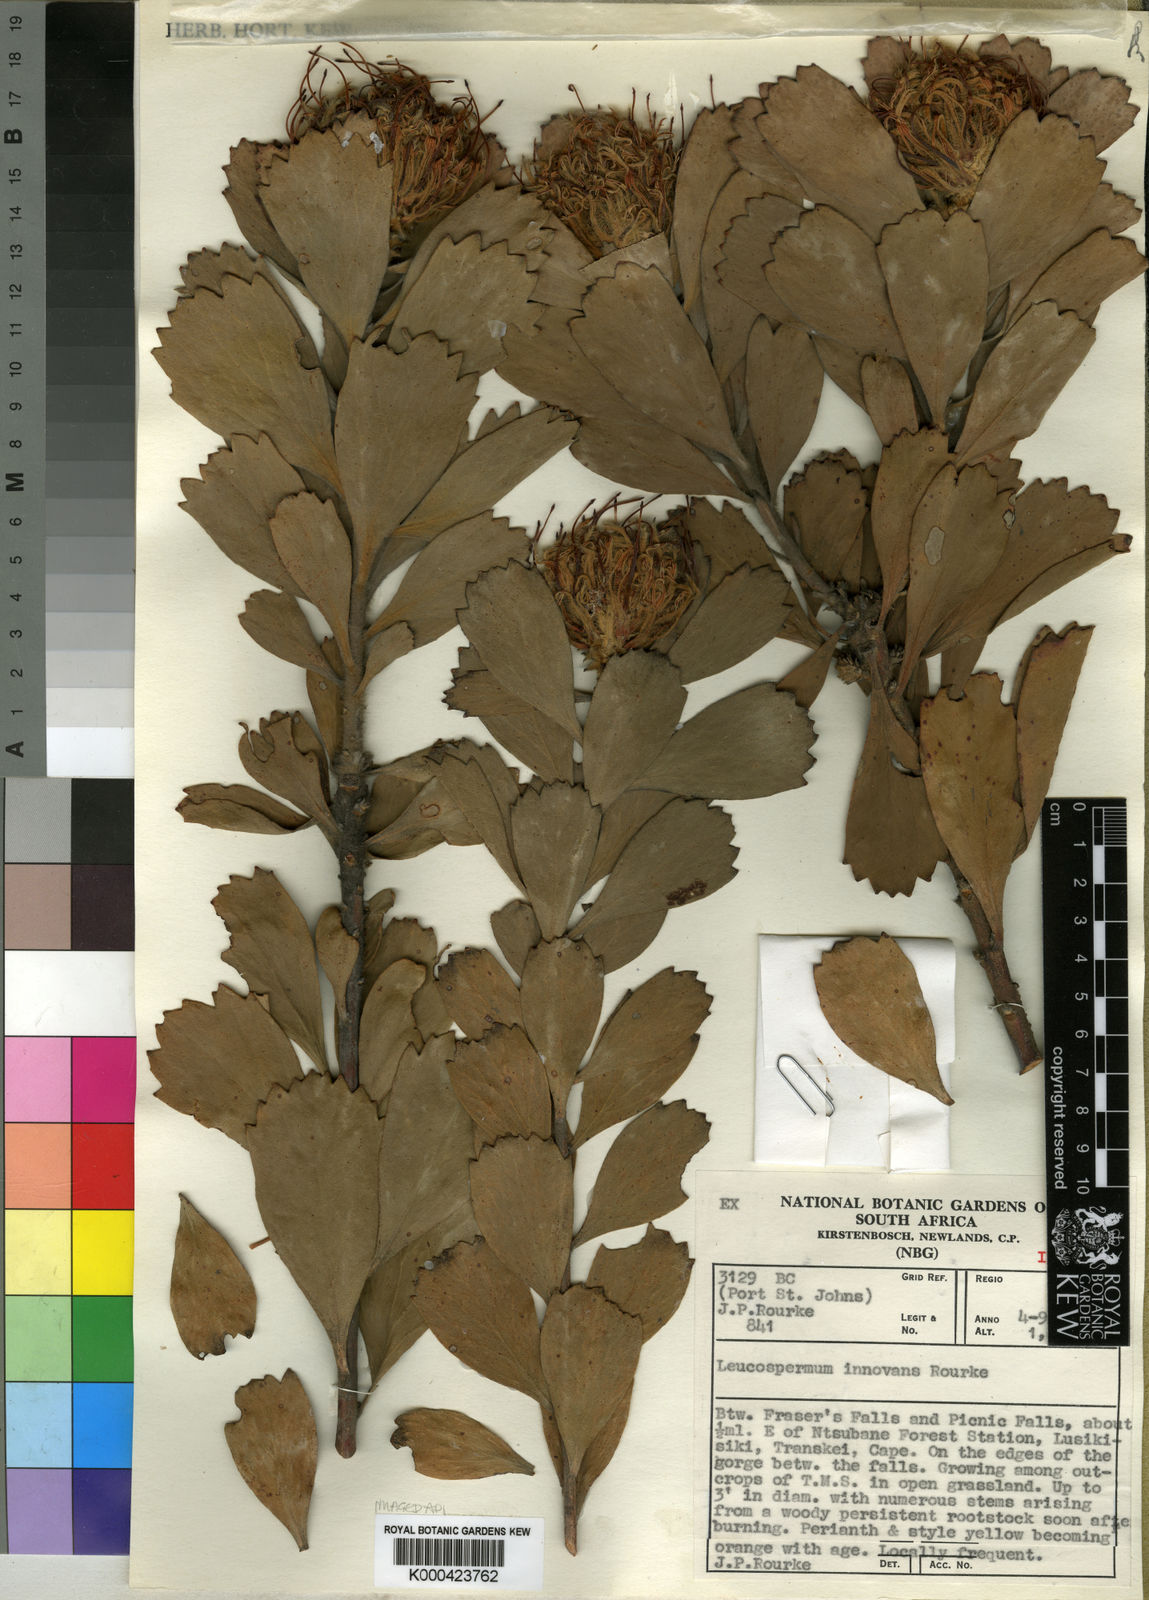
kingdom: Plantae
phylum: Tracheophyta
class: Magnoliopsida
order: Proteales
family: Proteaceae
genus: Leucospermum
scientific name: Leucospermum innovans
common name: Pondoland pincushion
